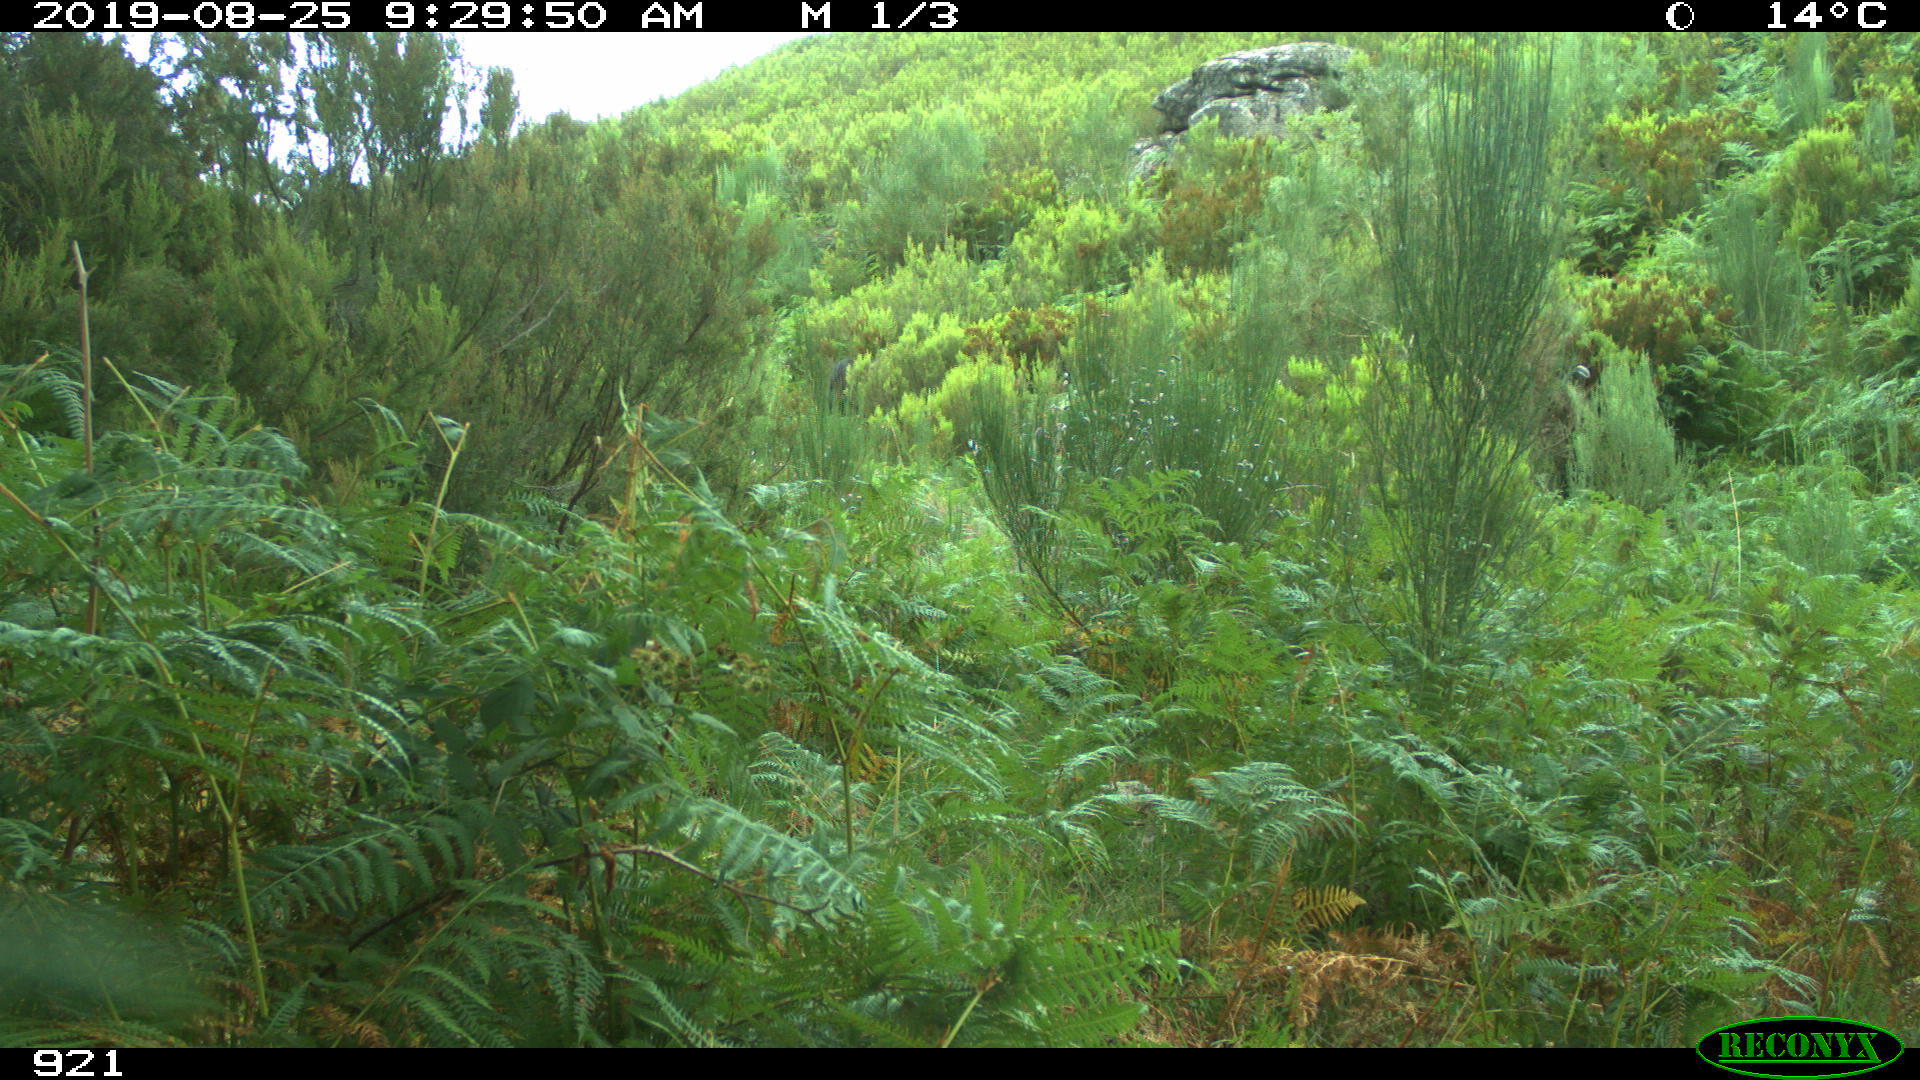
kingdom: Animalia
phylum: Chordata
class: Mammalia
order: Perissodactyla
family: Equidae
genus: Equus
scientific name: Equus caballus
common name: Horse
